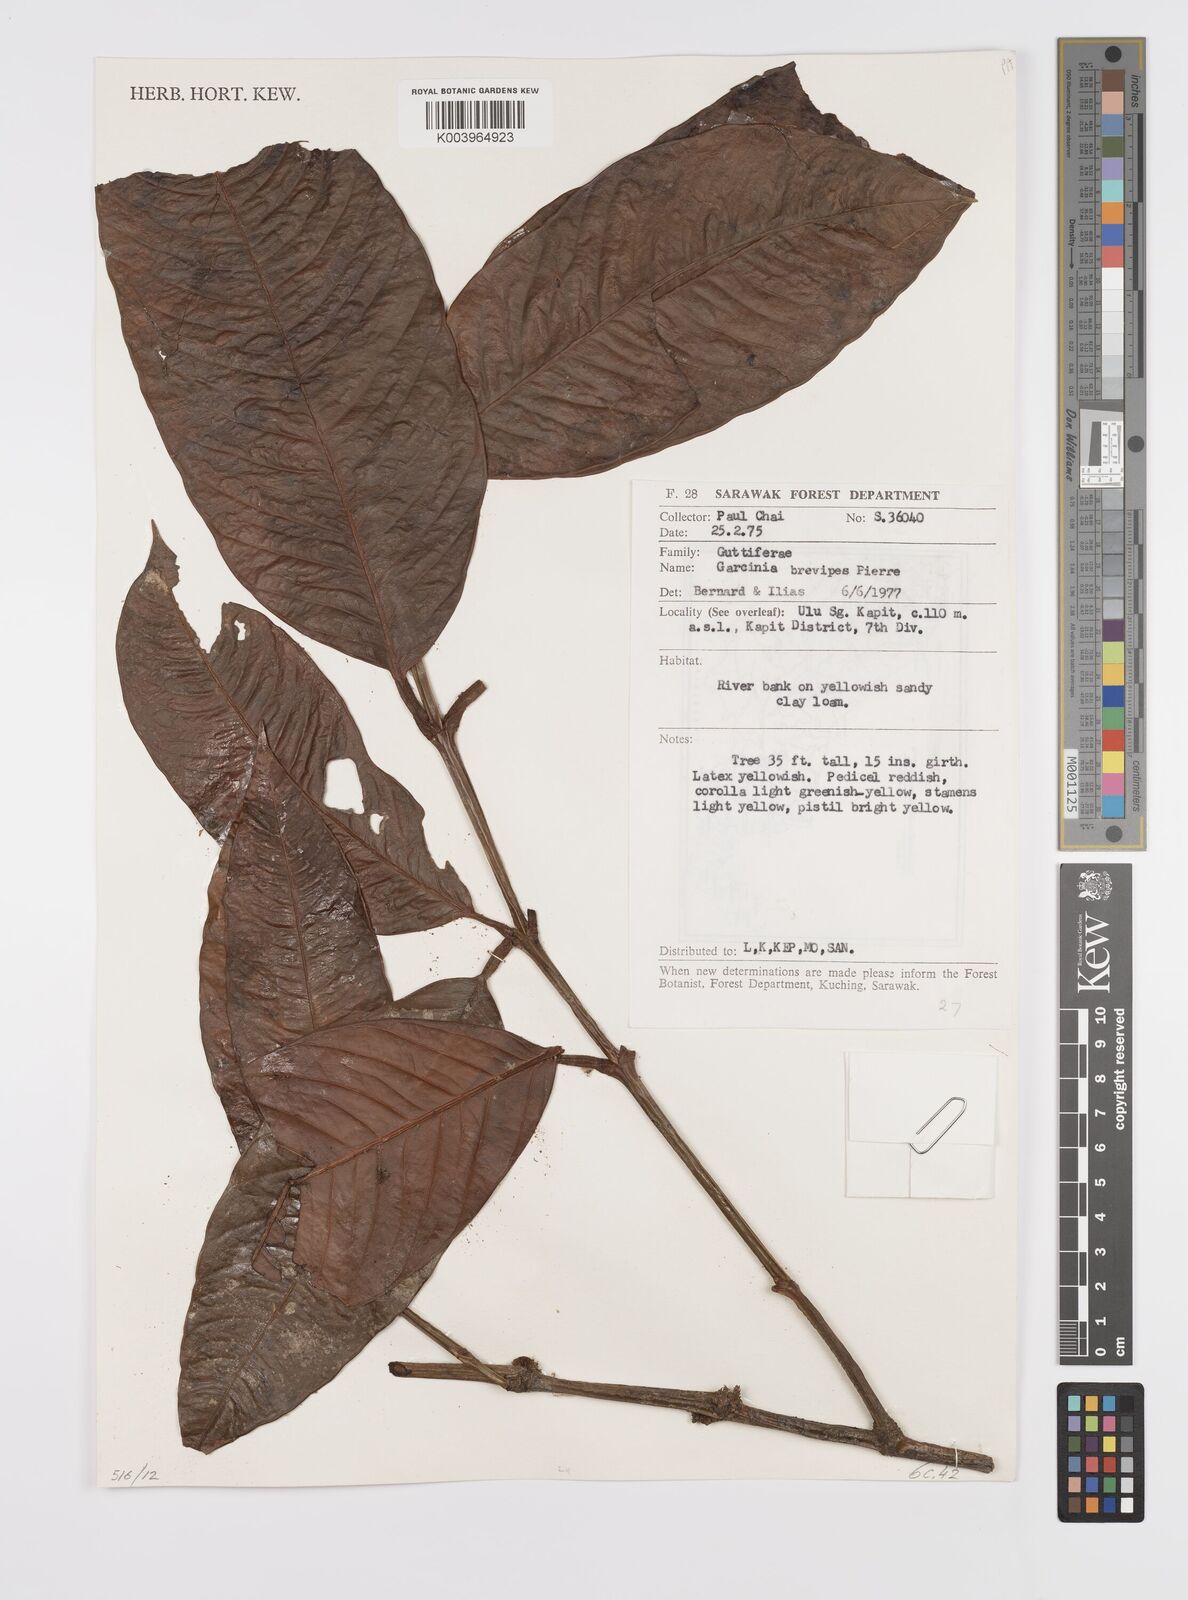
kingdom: Plantae
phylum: Tracheophyta
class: Magnoliopsida
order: Malpighiales
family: Clusiaceae
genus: Garcinia
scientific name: Garcinia brevipes
